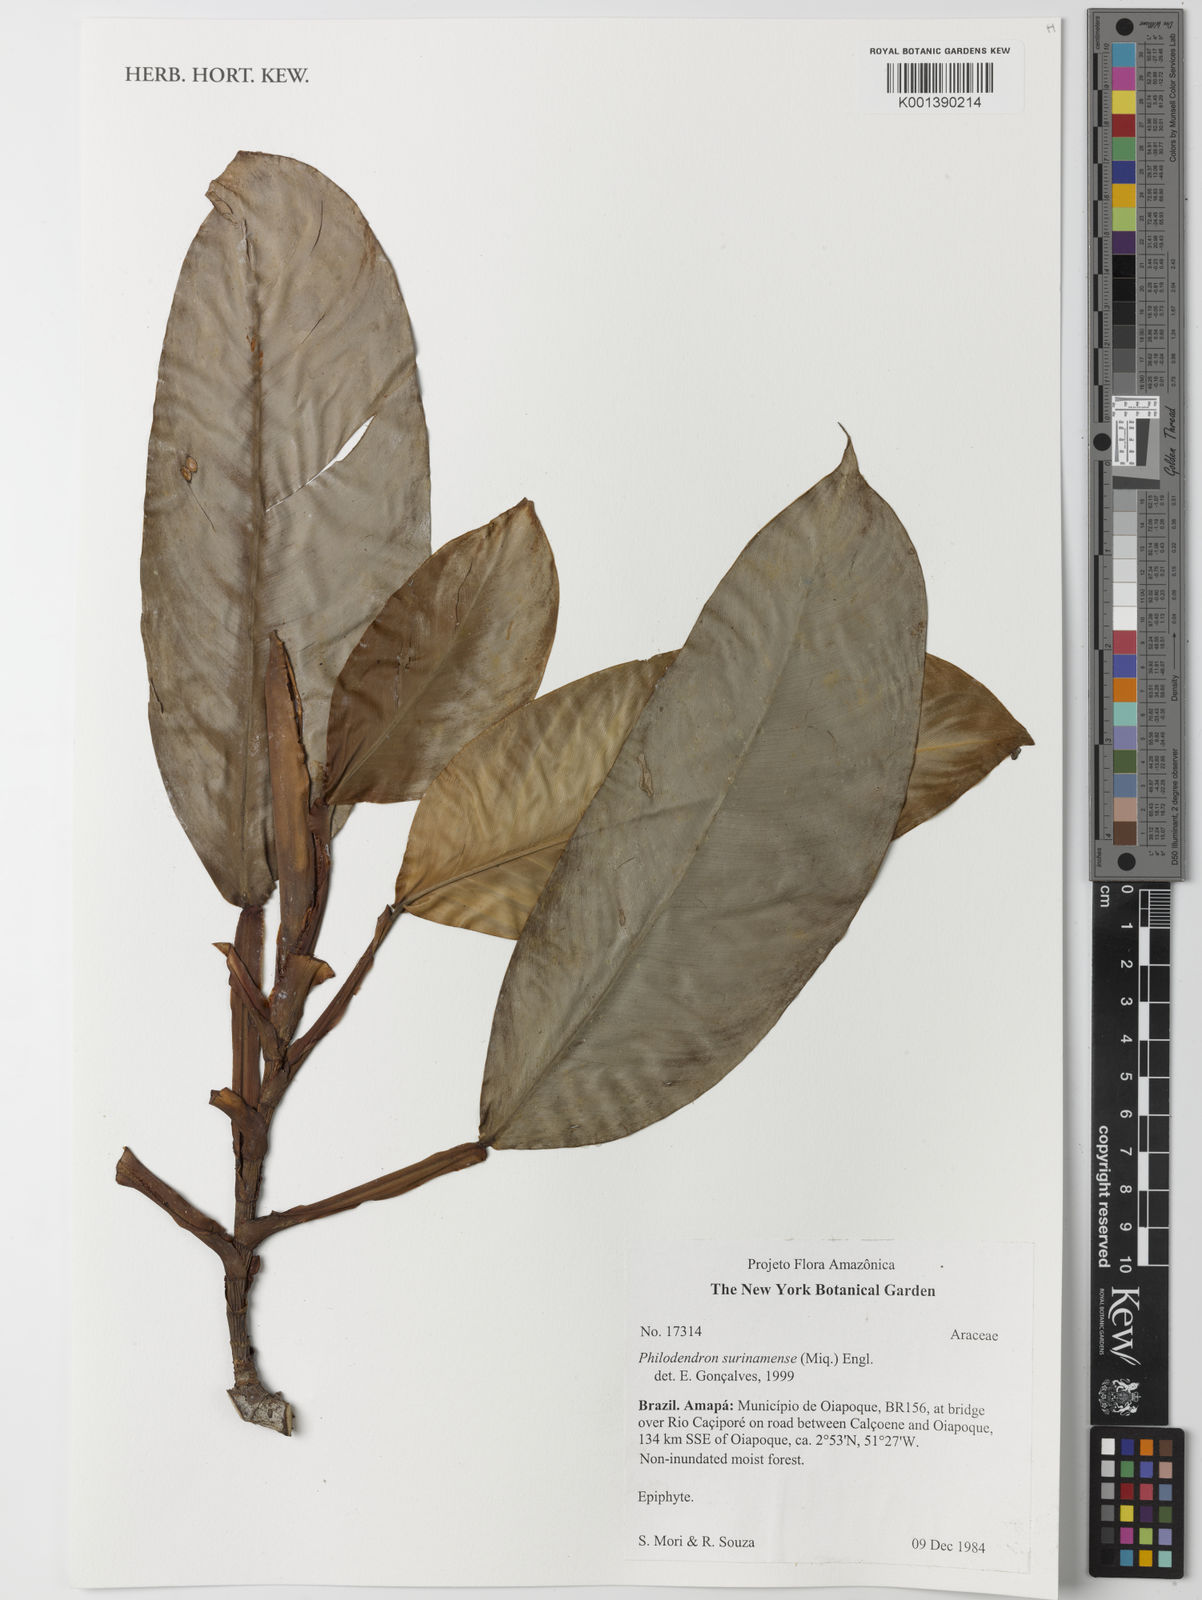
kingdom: Plantae
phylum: Tracheophyta
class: Liliopsida
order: Alismatales
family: Araceae
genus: Philodendron
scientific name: Philodendron surinamense
